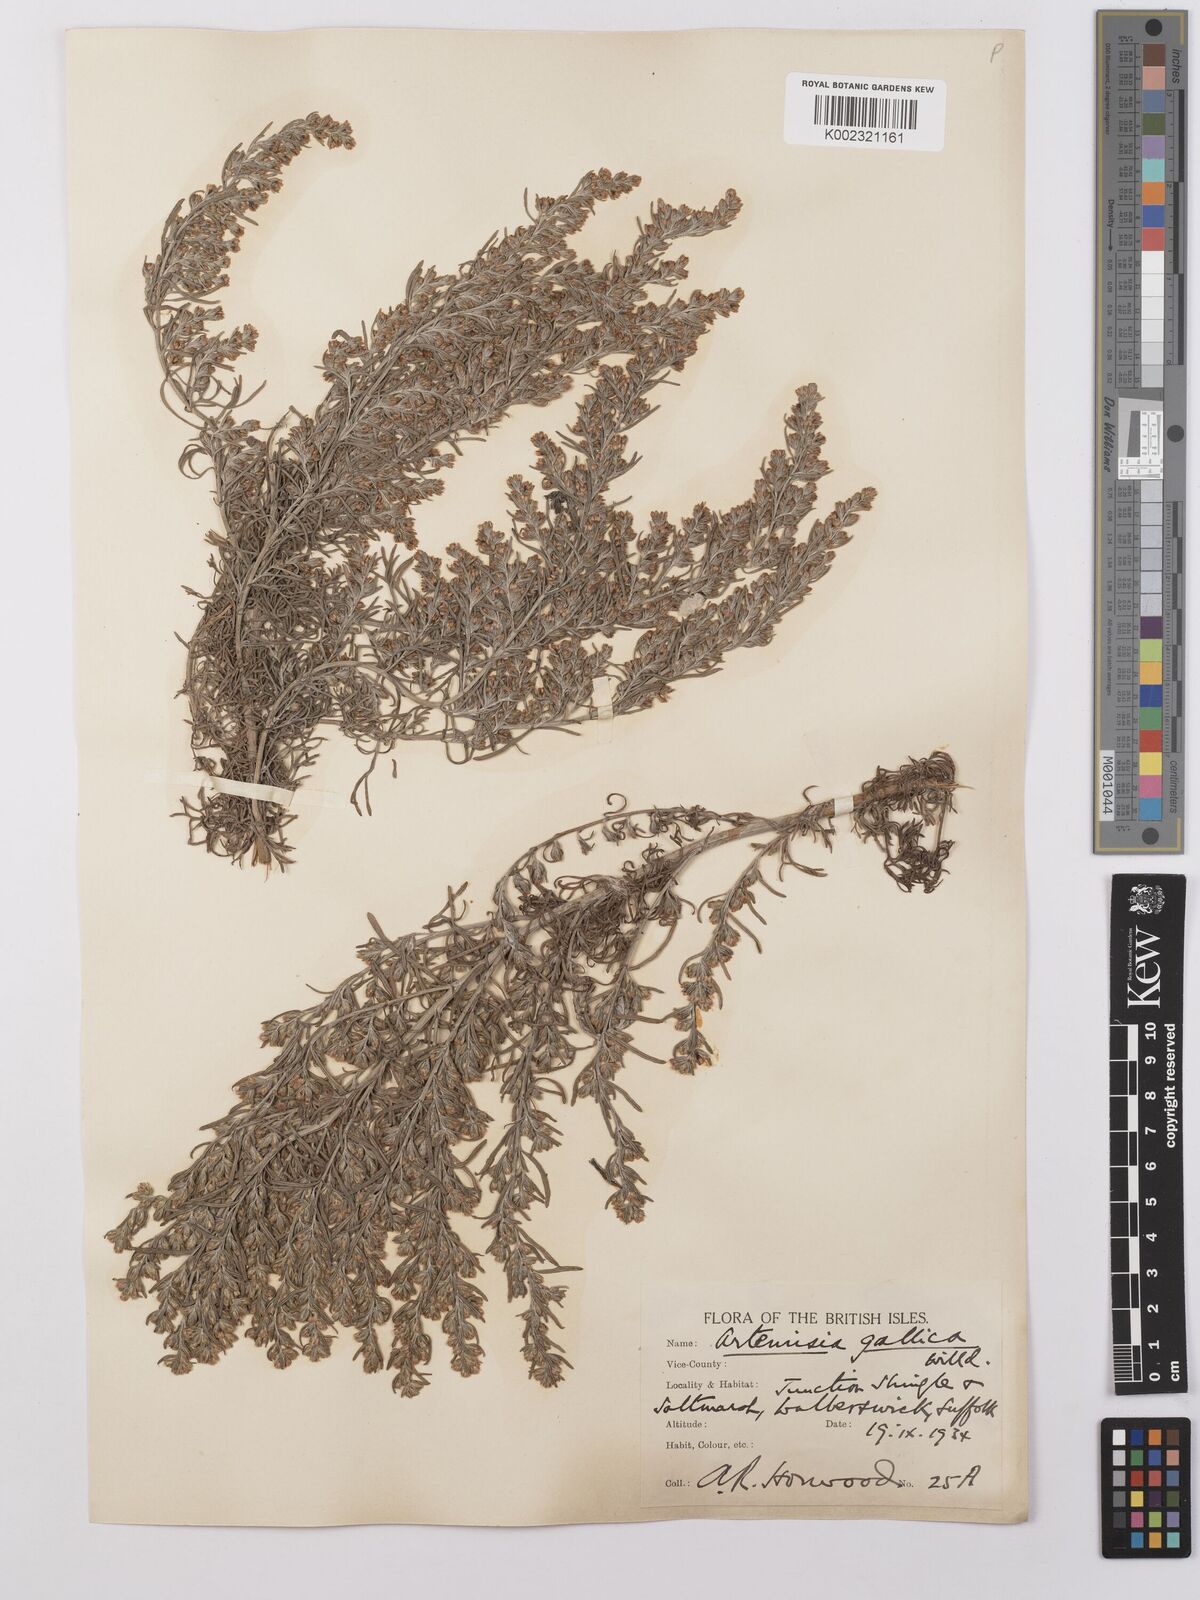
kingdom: Plantae
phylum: Tracheophyta
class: Magnoliopsida
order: Asterales
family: Asteraceae
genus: Artemisia
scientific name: Artemisia maritima
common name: Wormseed
